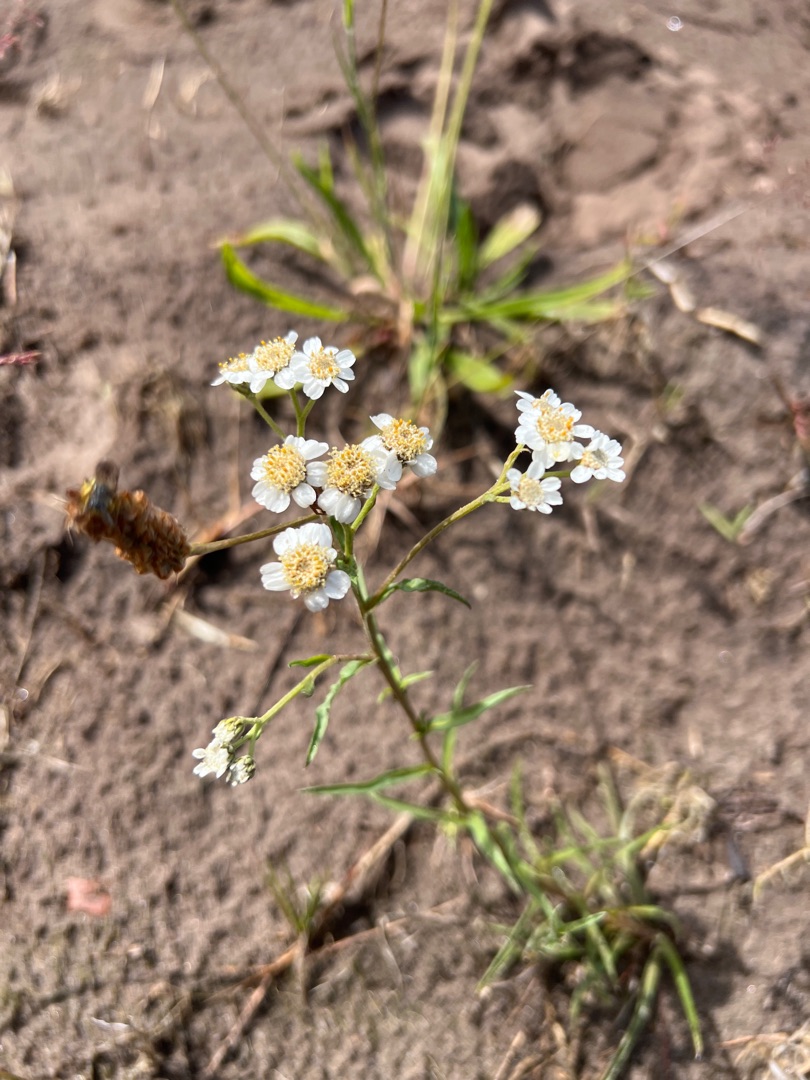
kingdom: Plantae
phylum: Tracheophyta
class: Magnoliopsida
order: Asterales
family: Asteraceae
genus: Achillea
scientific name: Achillea ptarmica
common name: Nyse-røllike
